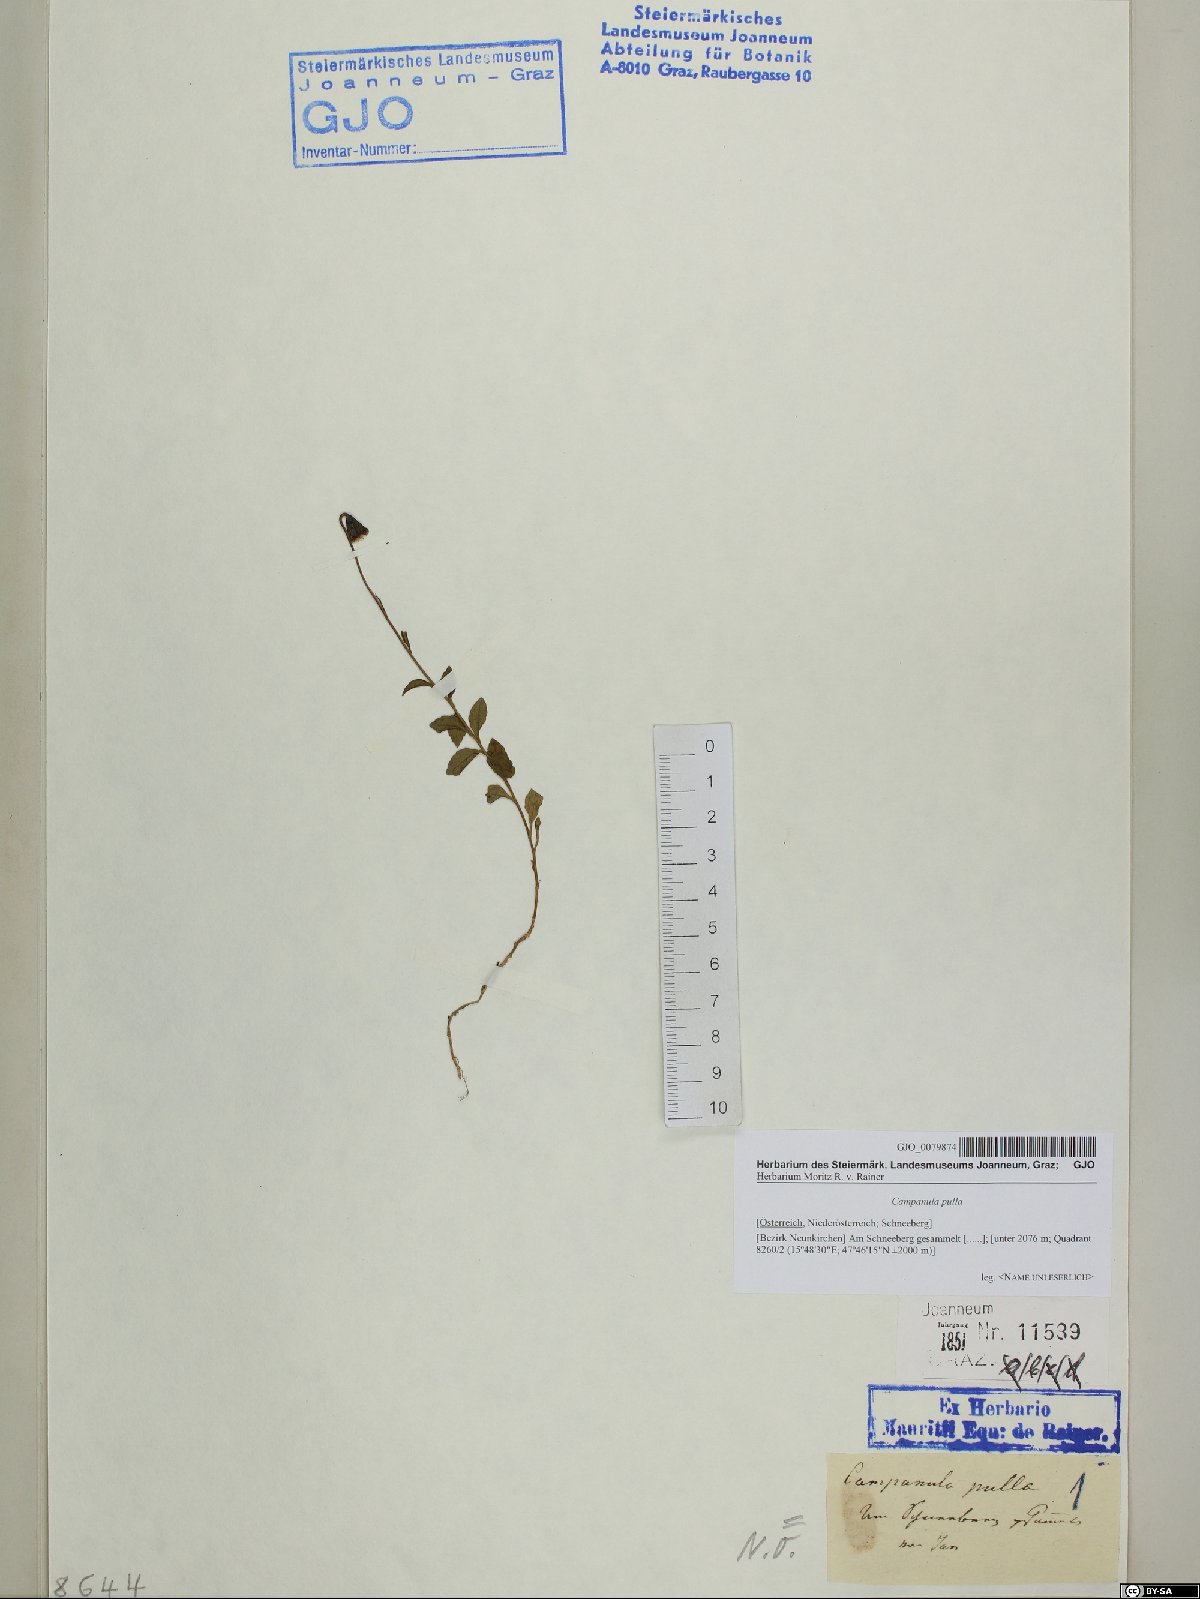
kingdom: Plantae
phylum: Tracheophyta
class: Magnoliopsida
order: Asterales
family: Campanulaceae
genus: Campanula
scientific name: Campanula pulla
